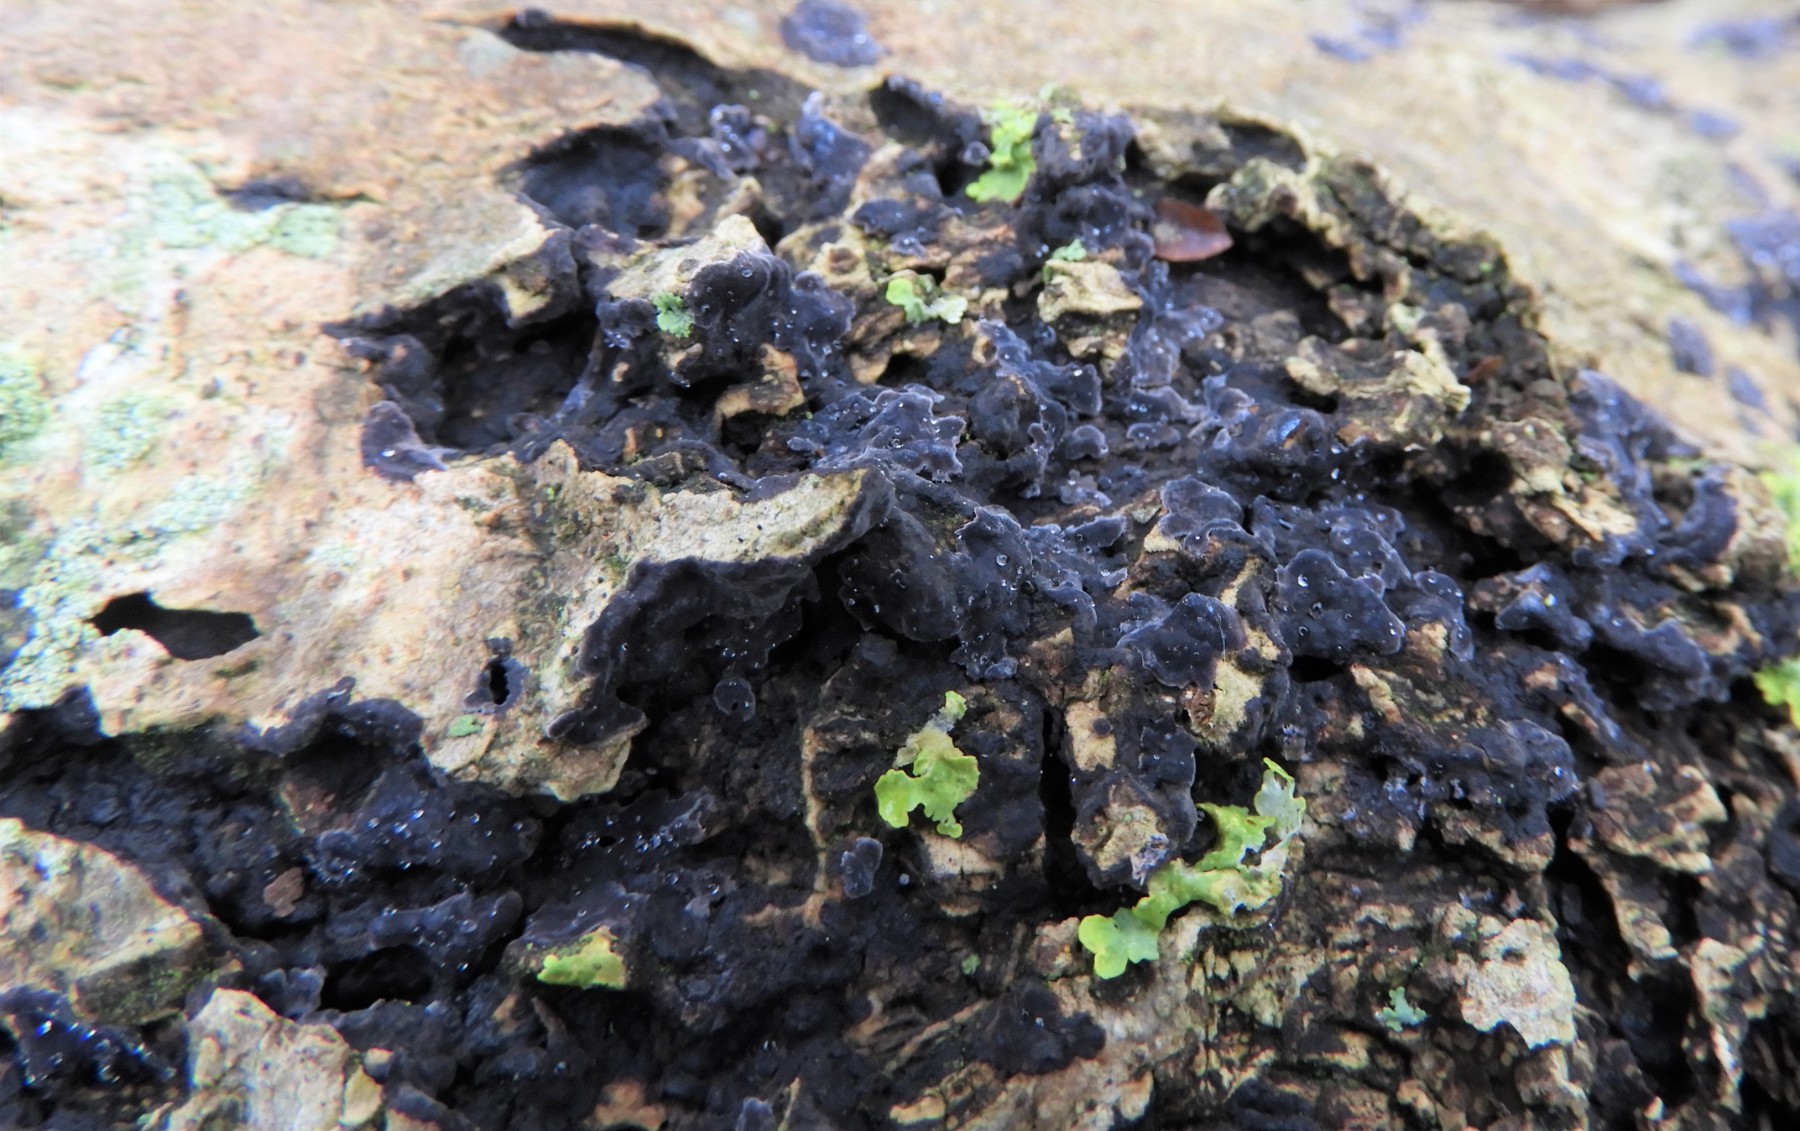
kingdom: Fungi
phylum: Basidiomycota
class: Agaricomycetes
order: Russulales
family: Peniophoraceae
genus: Peniophora
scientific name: Peniophora limitata
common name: mørkrandet voksskind
